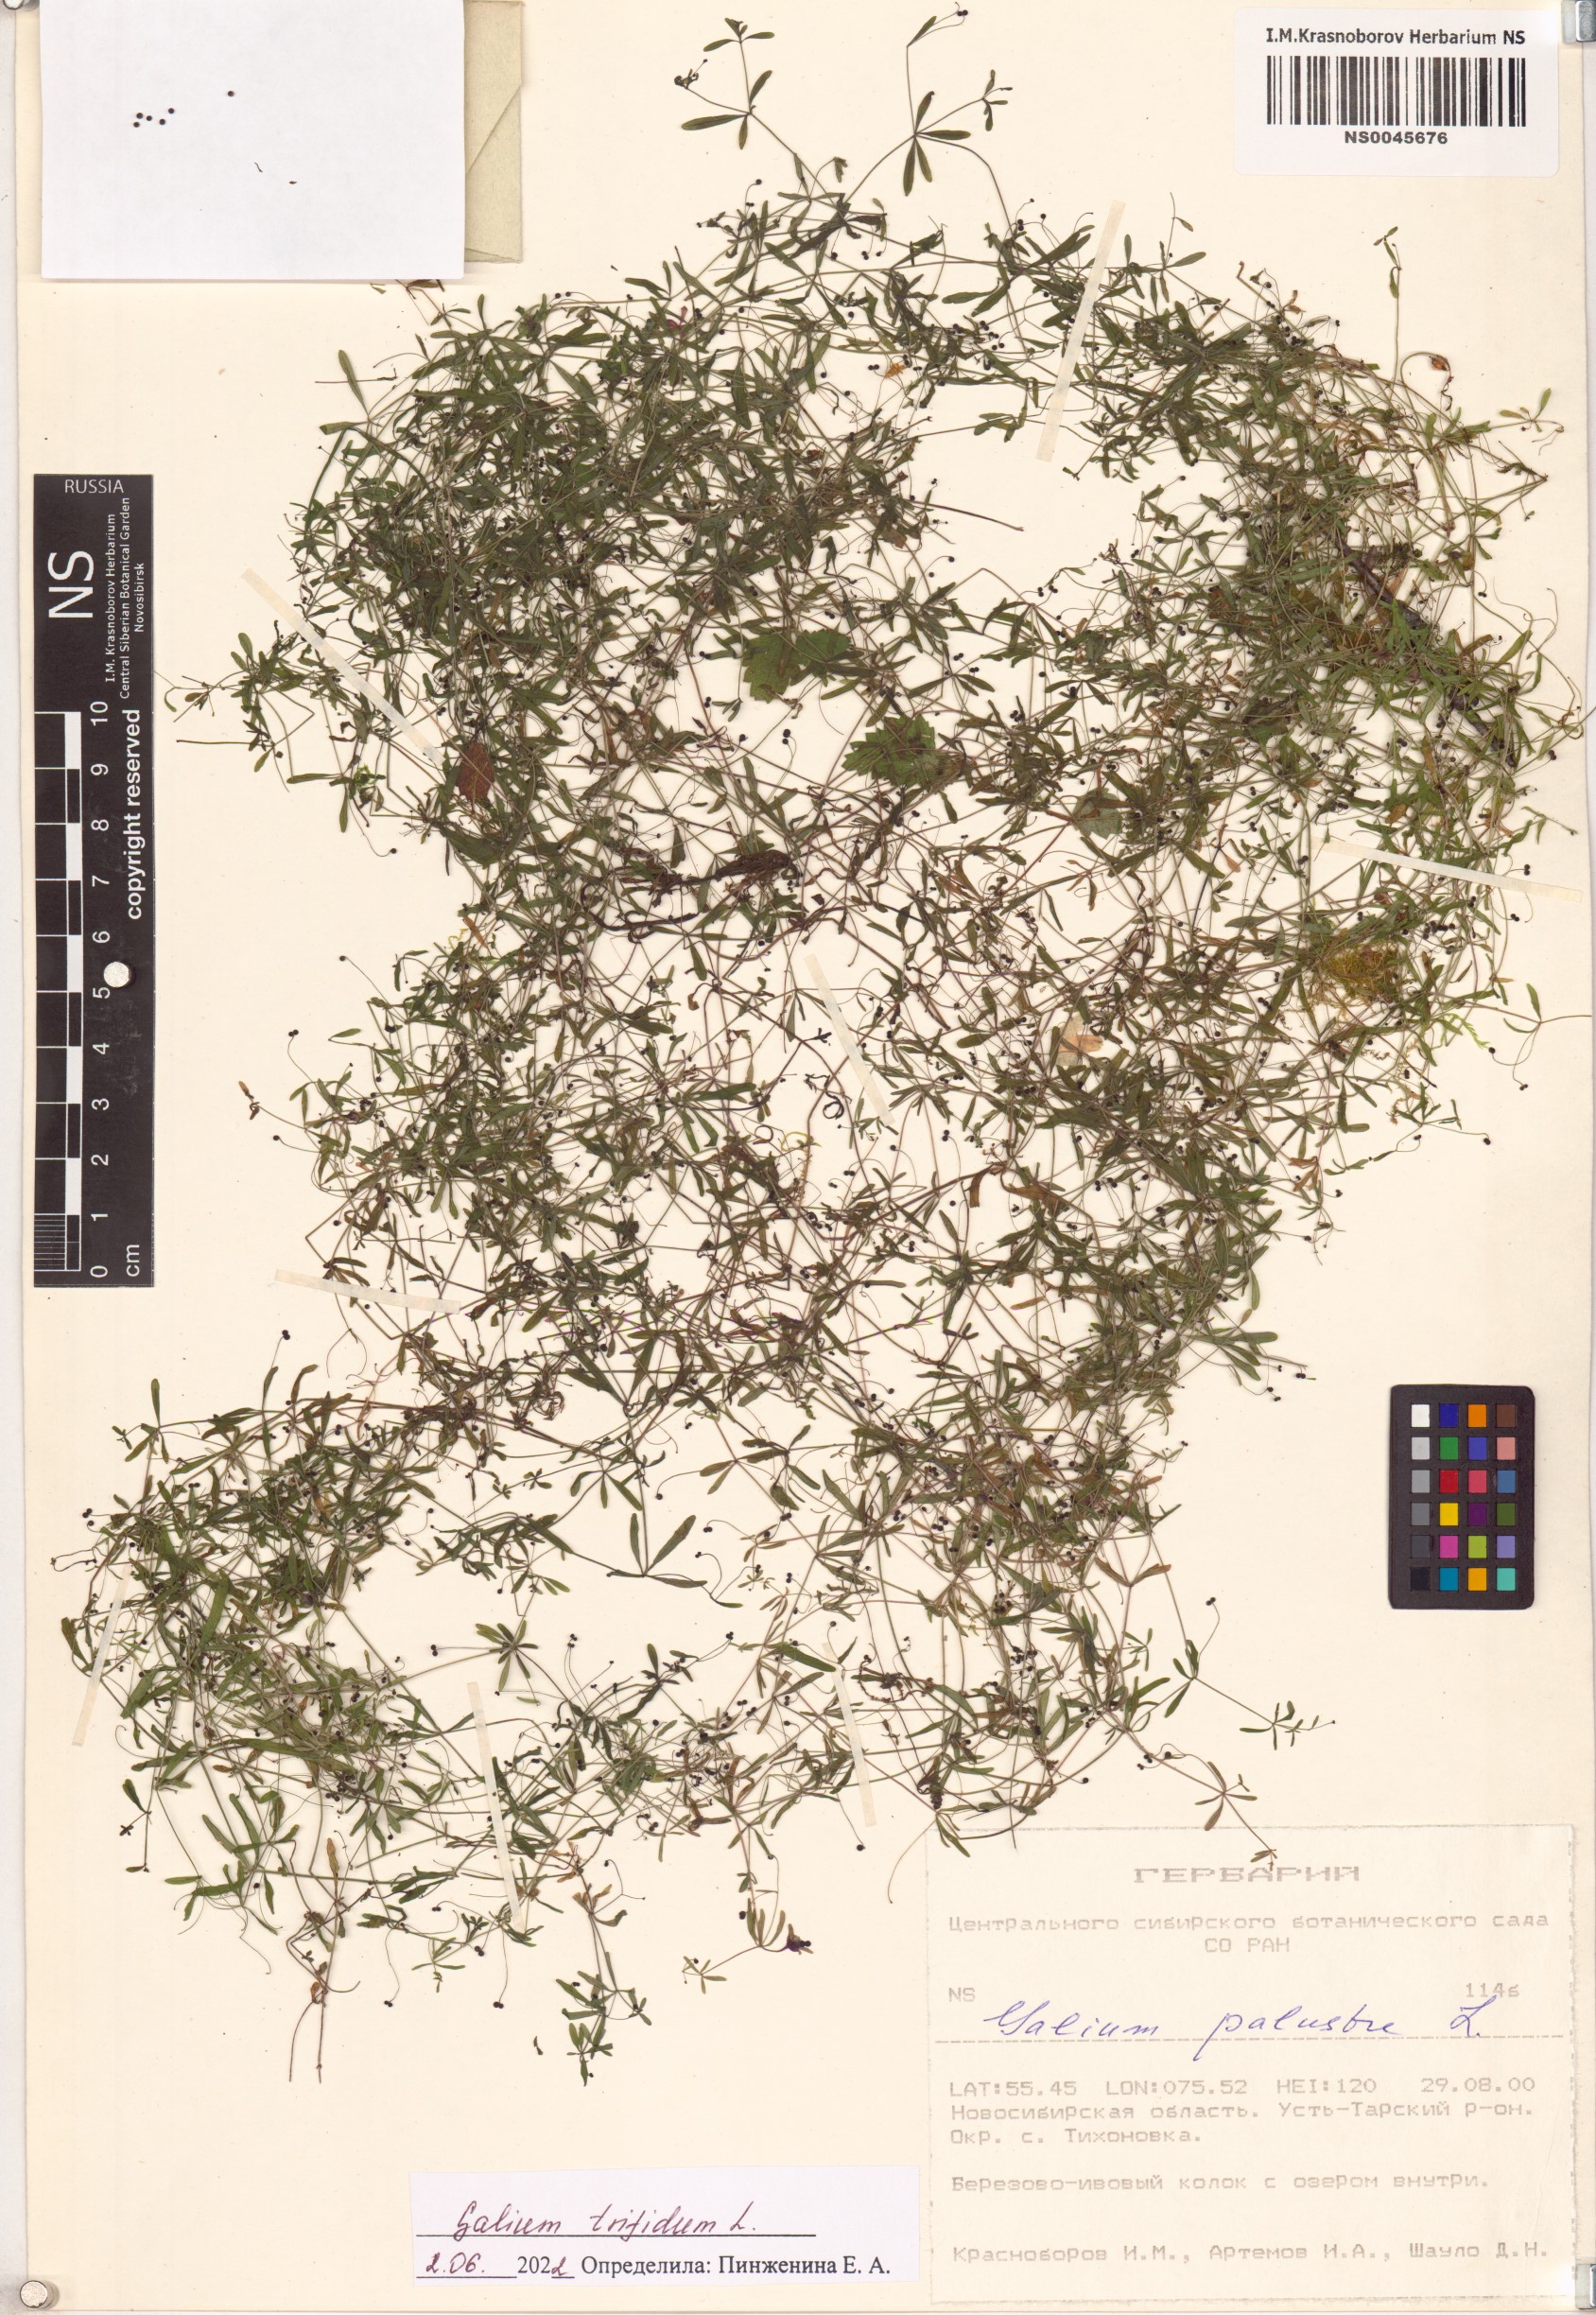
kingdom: Plantae
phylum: Tracheophyta
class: Magnoliopsida
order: Gentianales
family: Rubiaceae
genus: Galium
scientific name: Galium trifidum
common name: Small bedstraw
